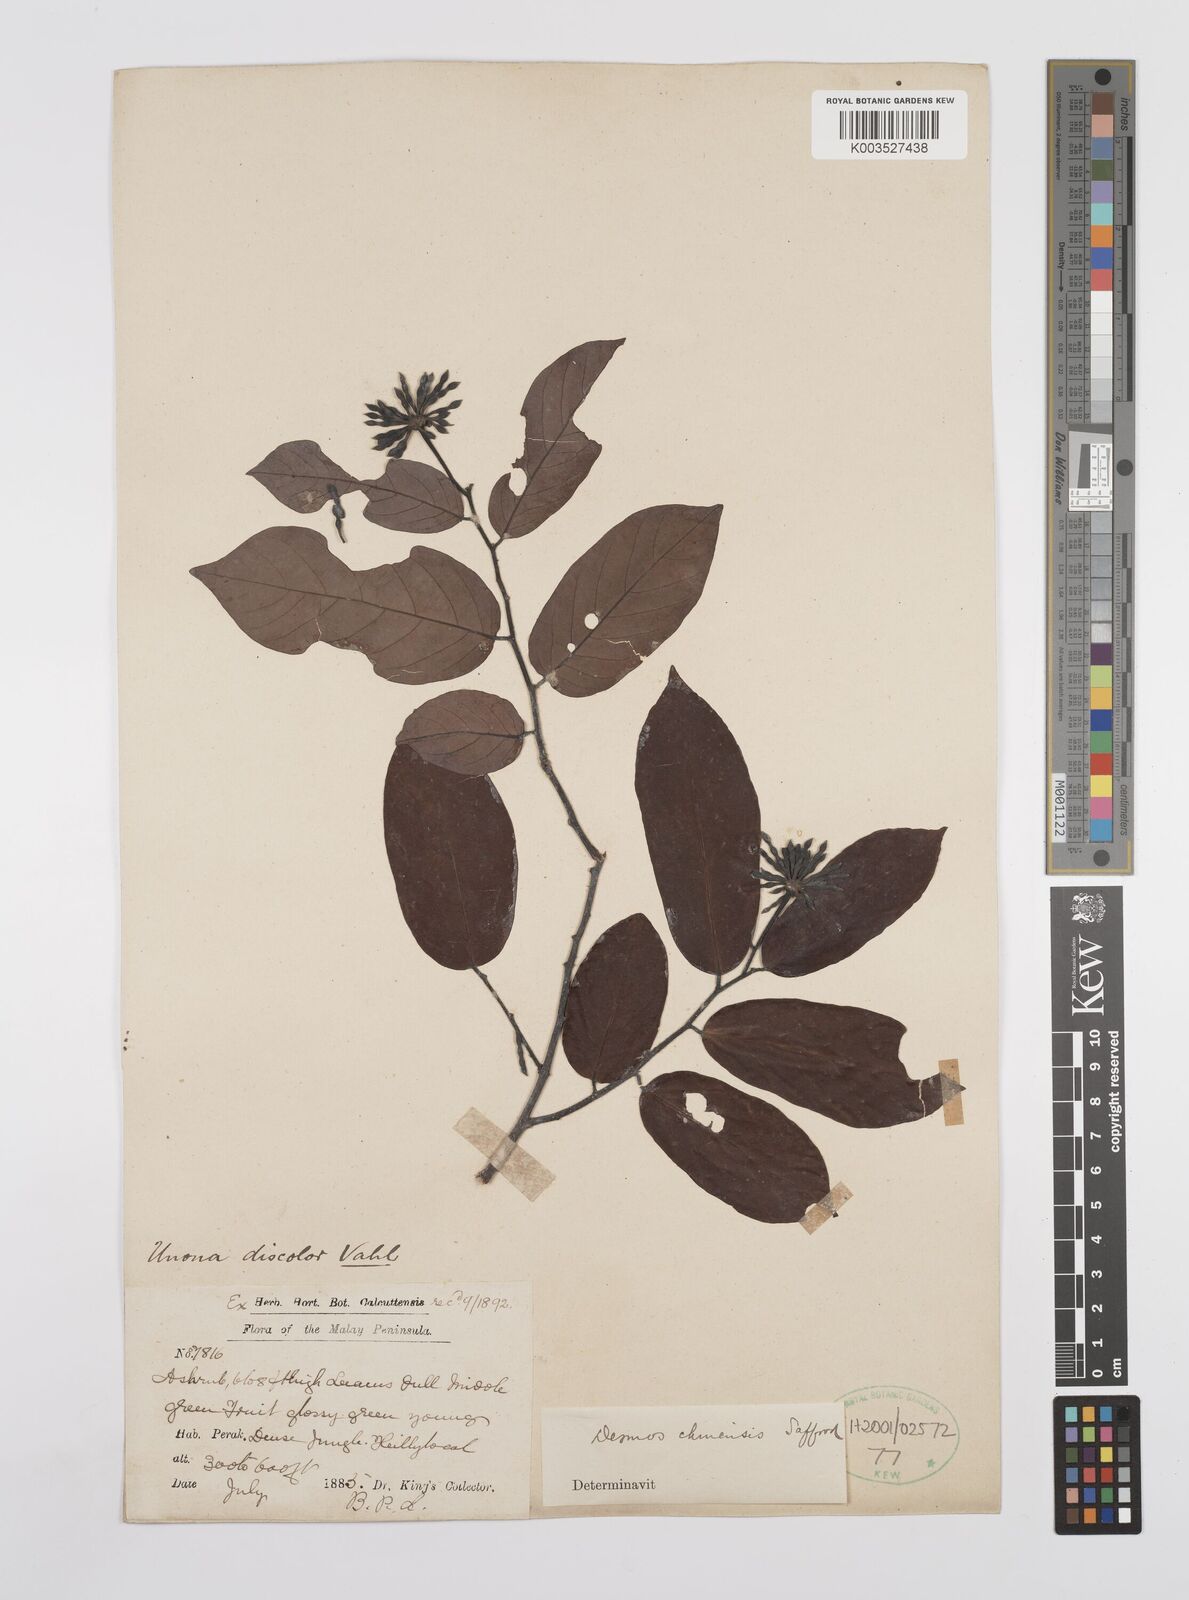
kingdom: Plantae
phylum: Tracheophyta
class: Magnoliopsida
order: Magnoliales
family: Annonaceae
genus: Desmos
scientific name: Desmos chinensis
